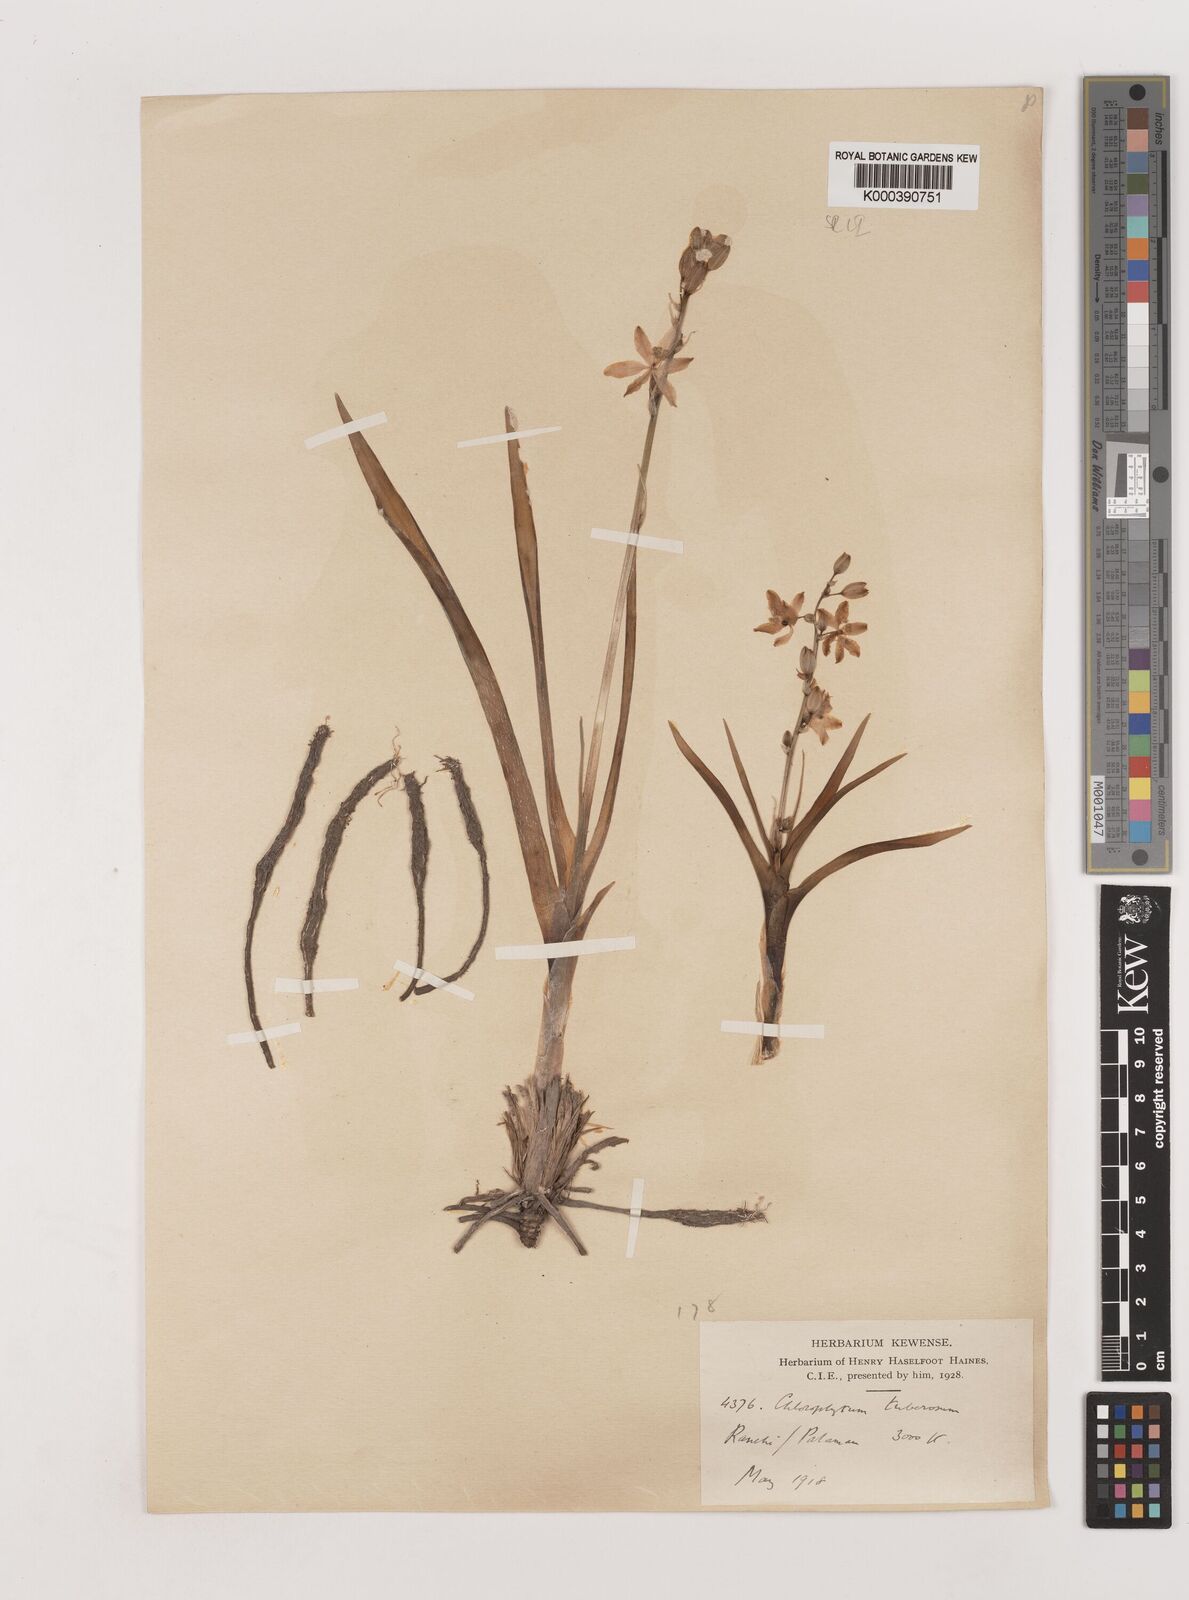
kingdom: Plantae
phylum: Tracheophyta
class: Liliopsida
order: Asparagales
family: Asparagaceae
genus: Chlorophytum
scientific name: Chlorophytum tuberosum
